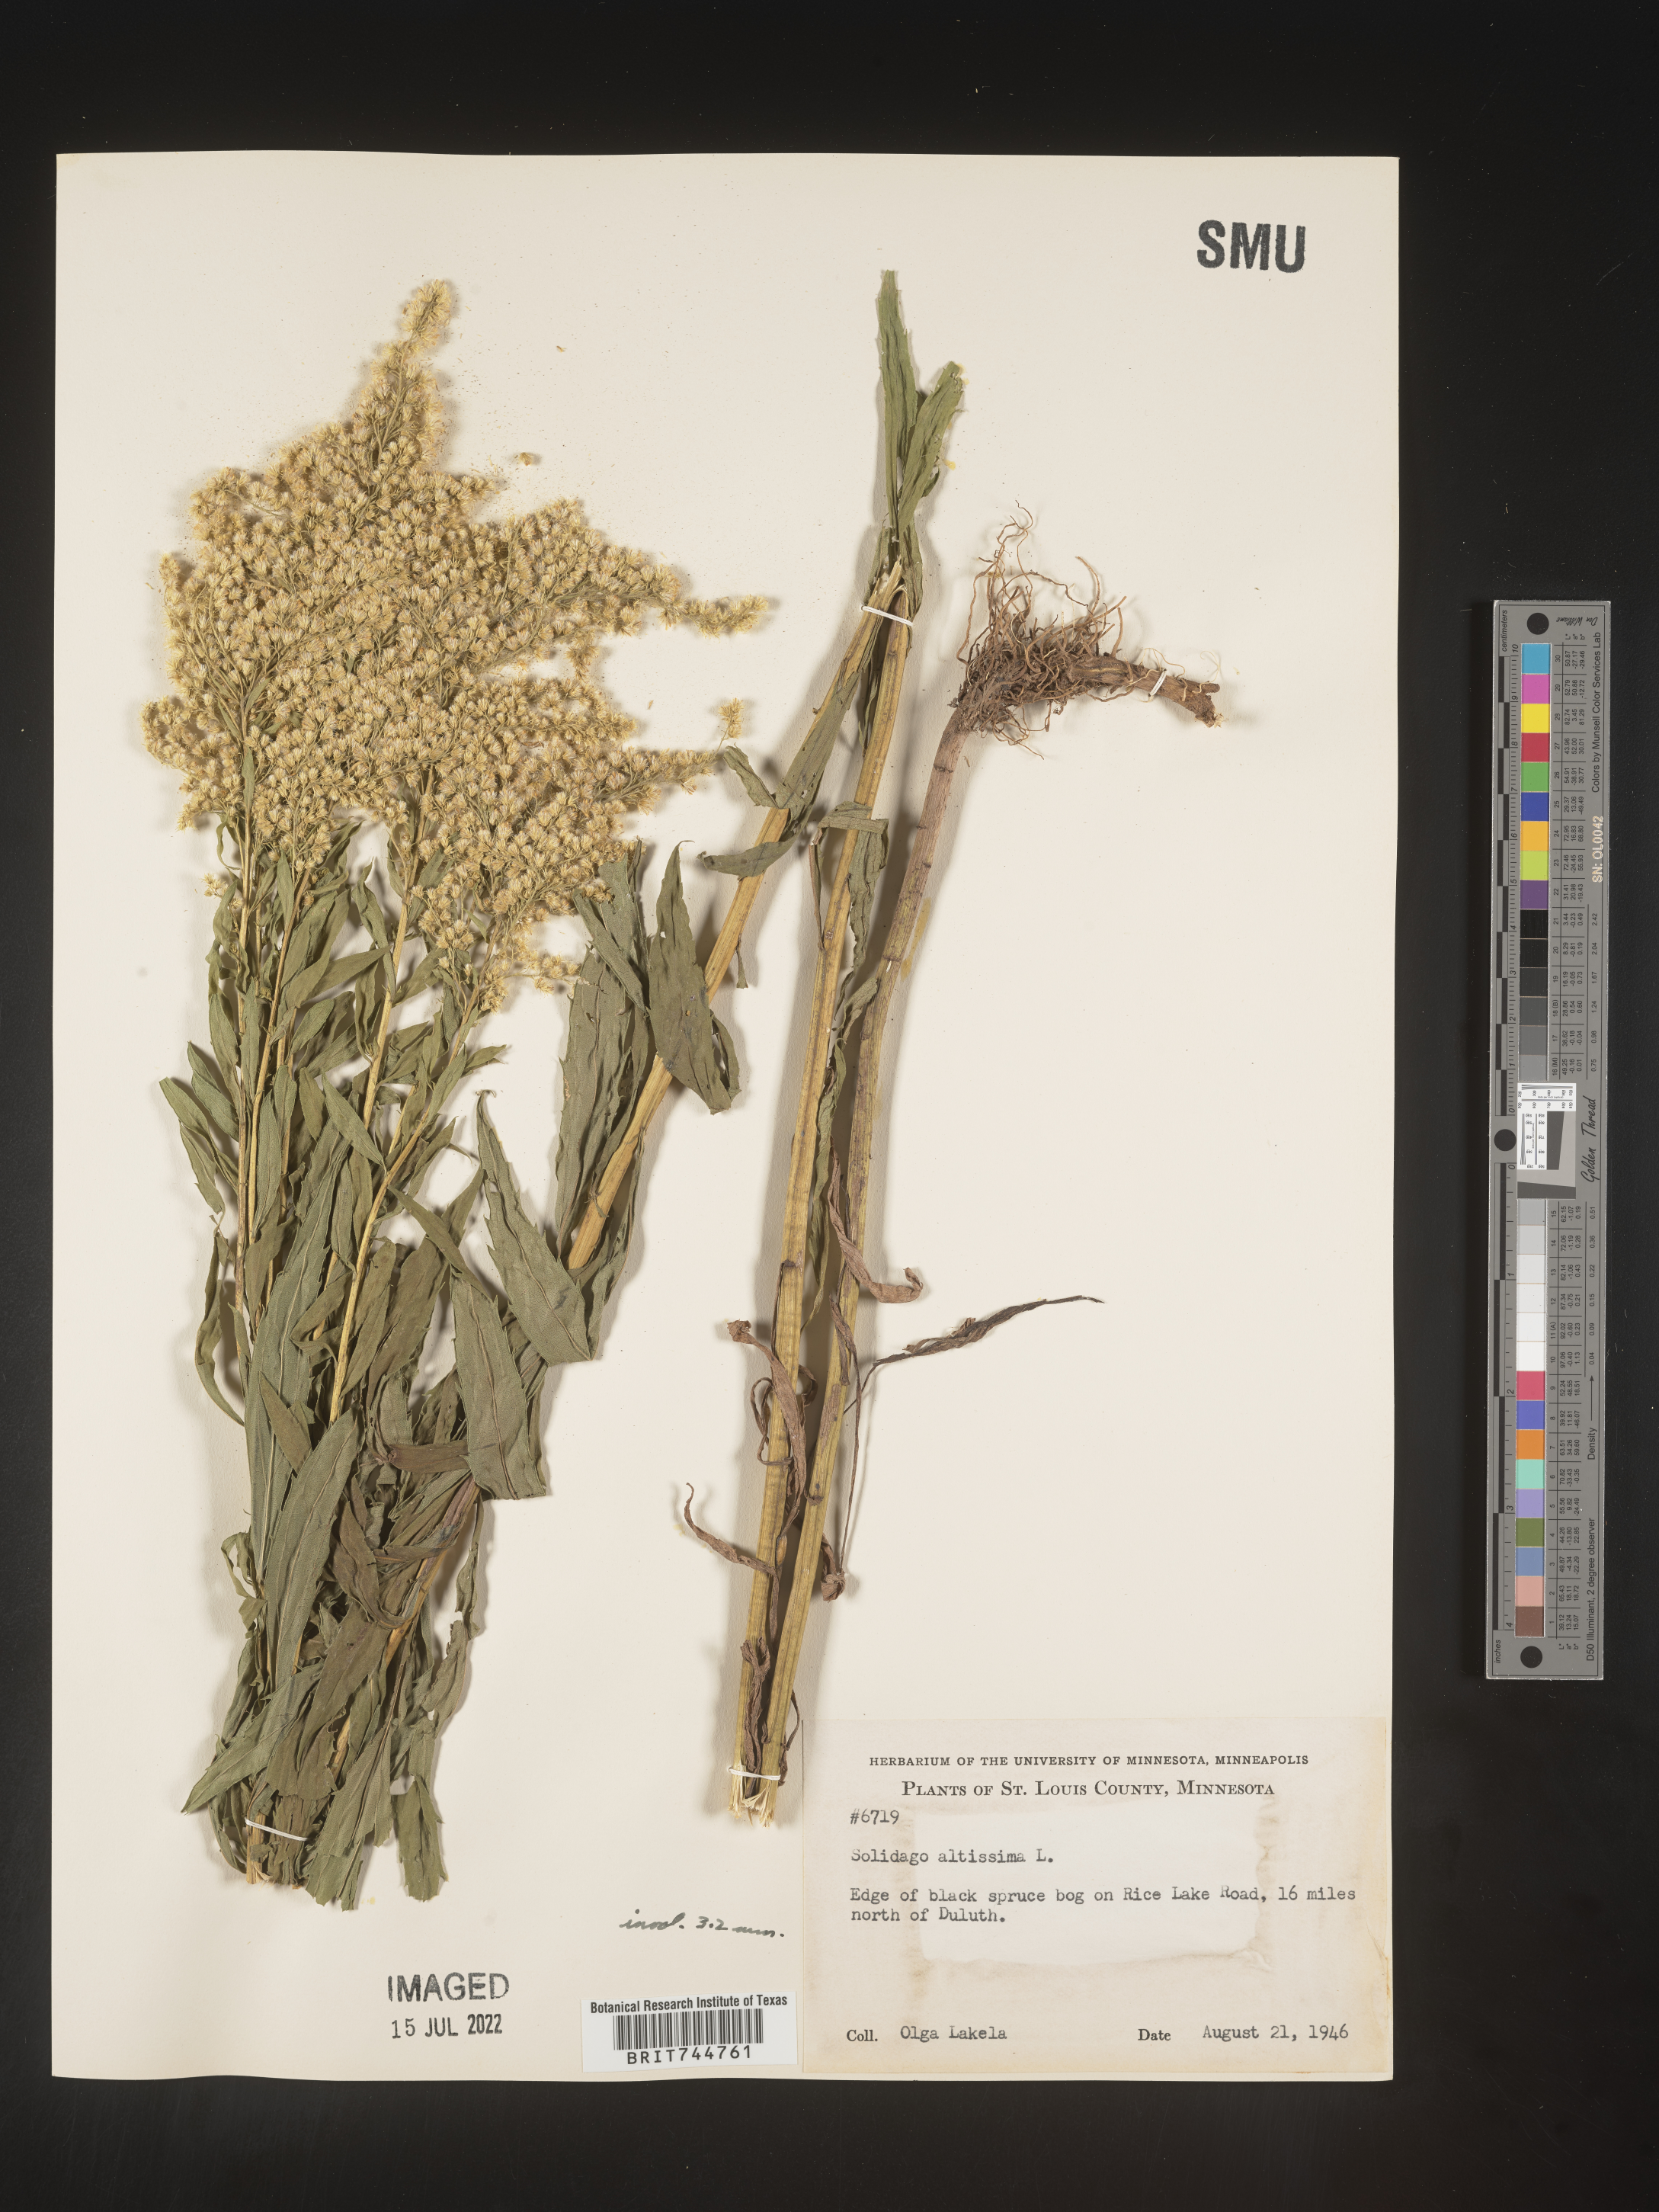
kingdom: Plantae
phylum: Tracheophyta
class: Magnoliopsida
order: Asterales
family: Asteraceae
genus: Solidago
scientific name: Solidago canadensis
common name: Canada goldenrod
